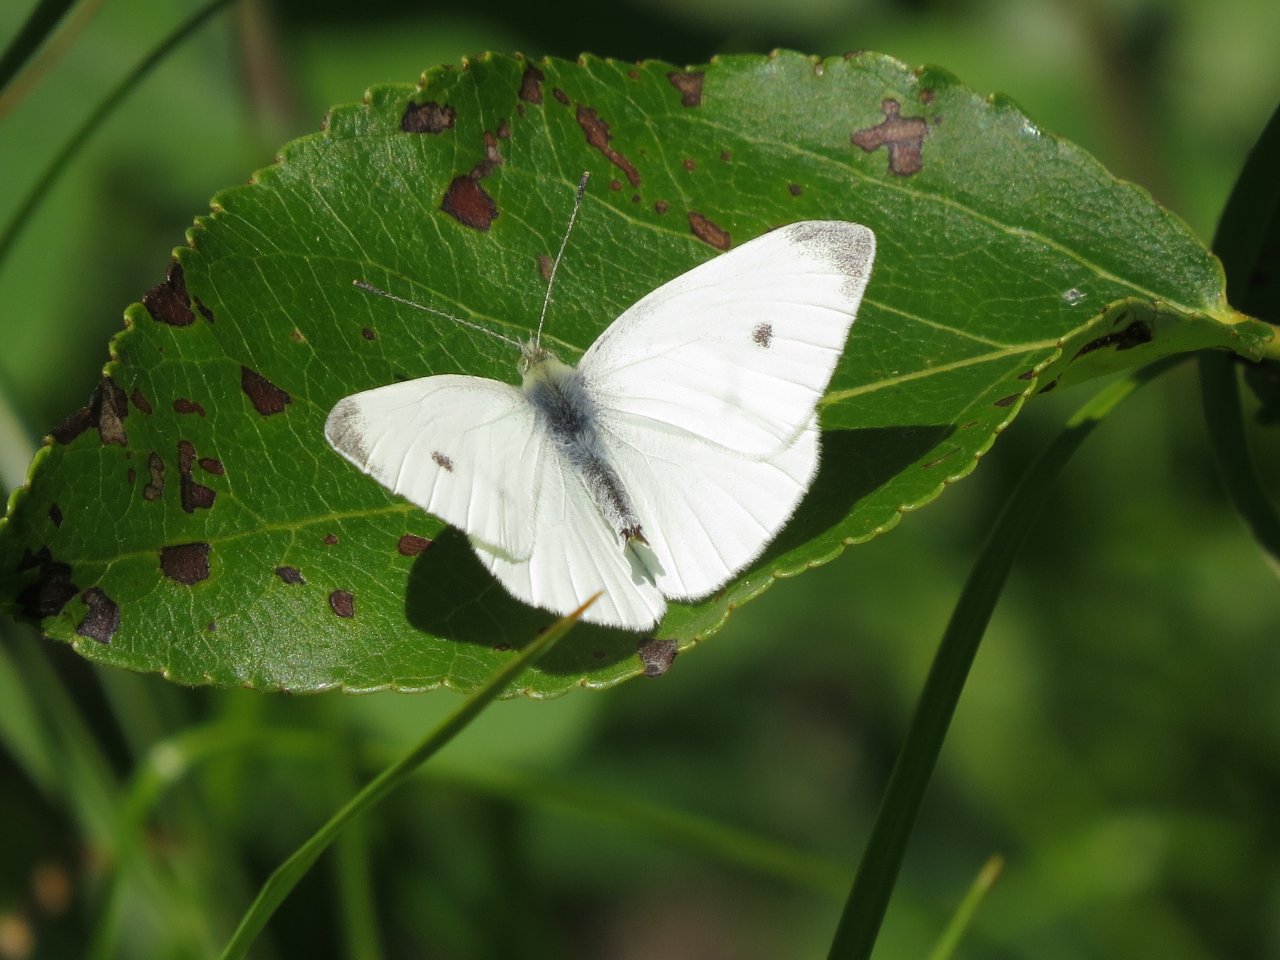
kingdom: Animalia
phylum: Arthropoda
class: Insecta
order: Lepidoptera
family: Pieridae
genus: Pieris
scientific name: Pieris rapae
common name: Cabbage White
